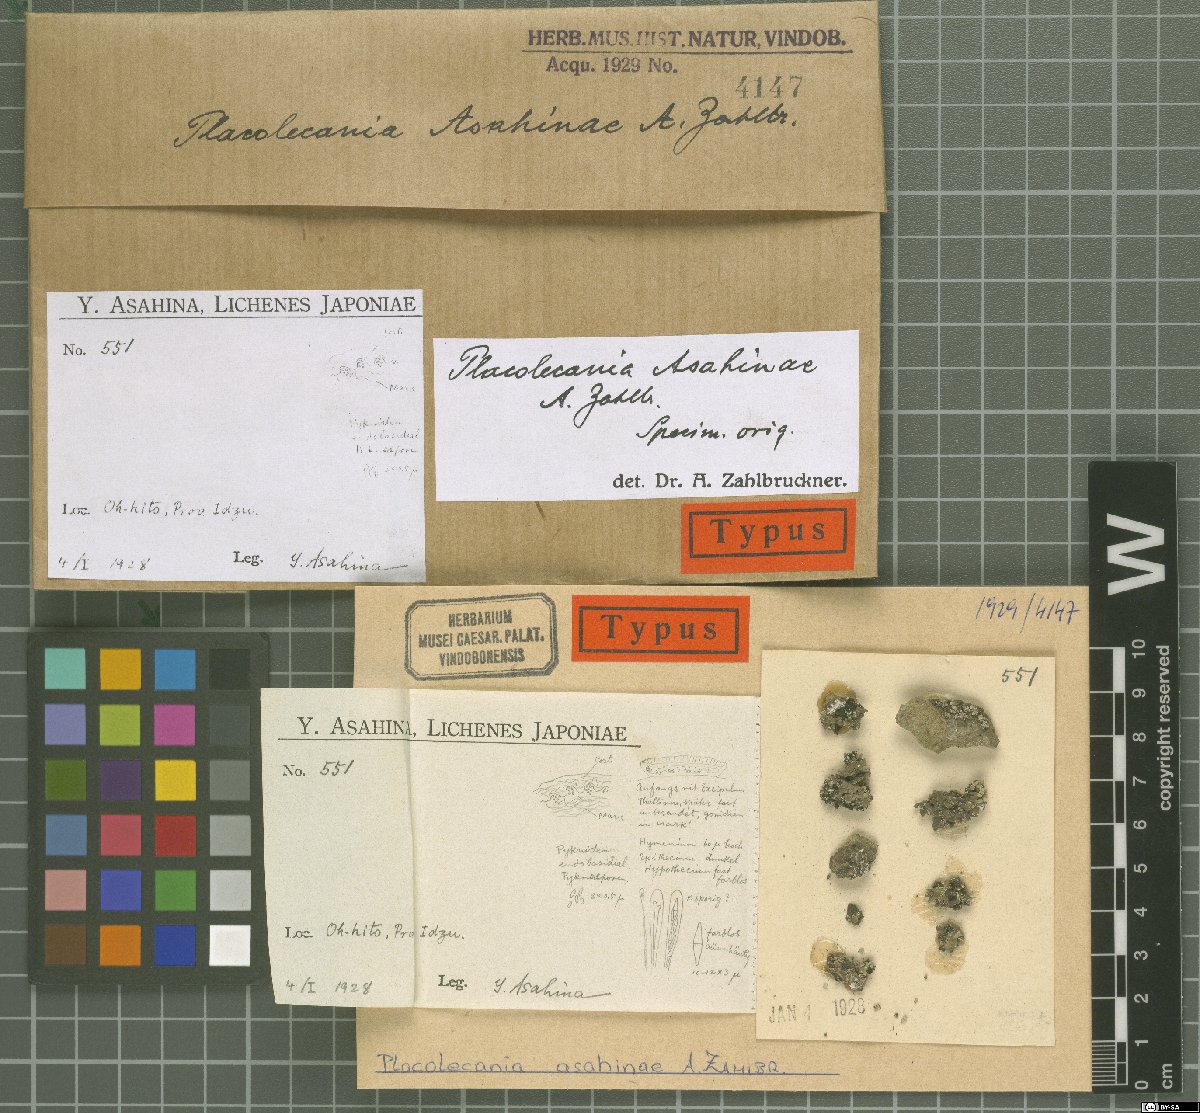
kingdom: Fungi
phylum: Ascomycota
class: Lecanoromycetes
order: Lecanorales
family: Lecanoraceae
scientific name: Lecanoraceae
